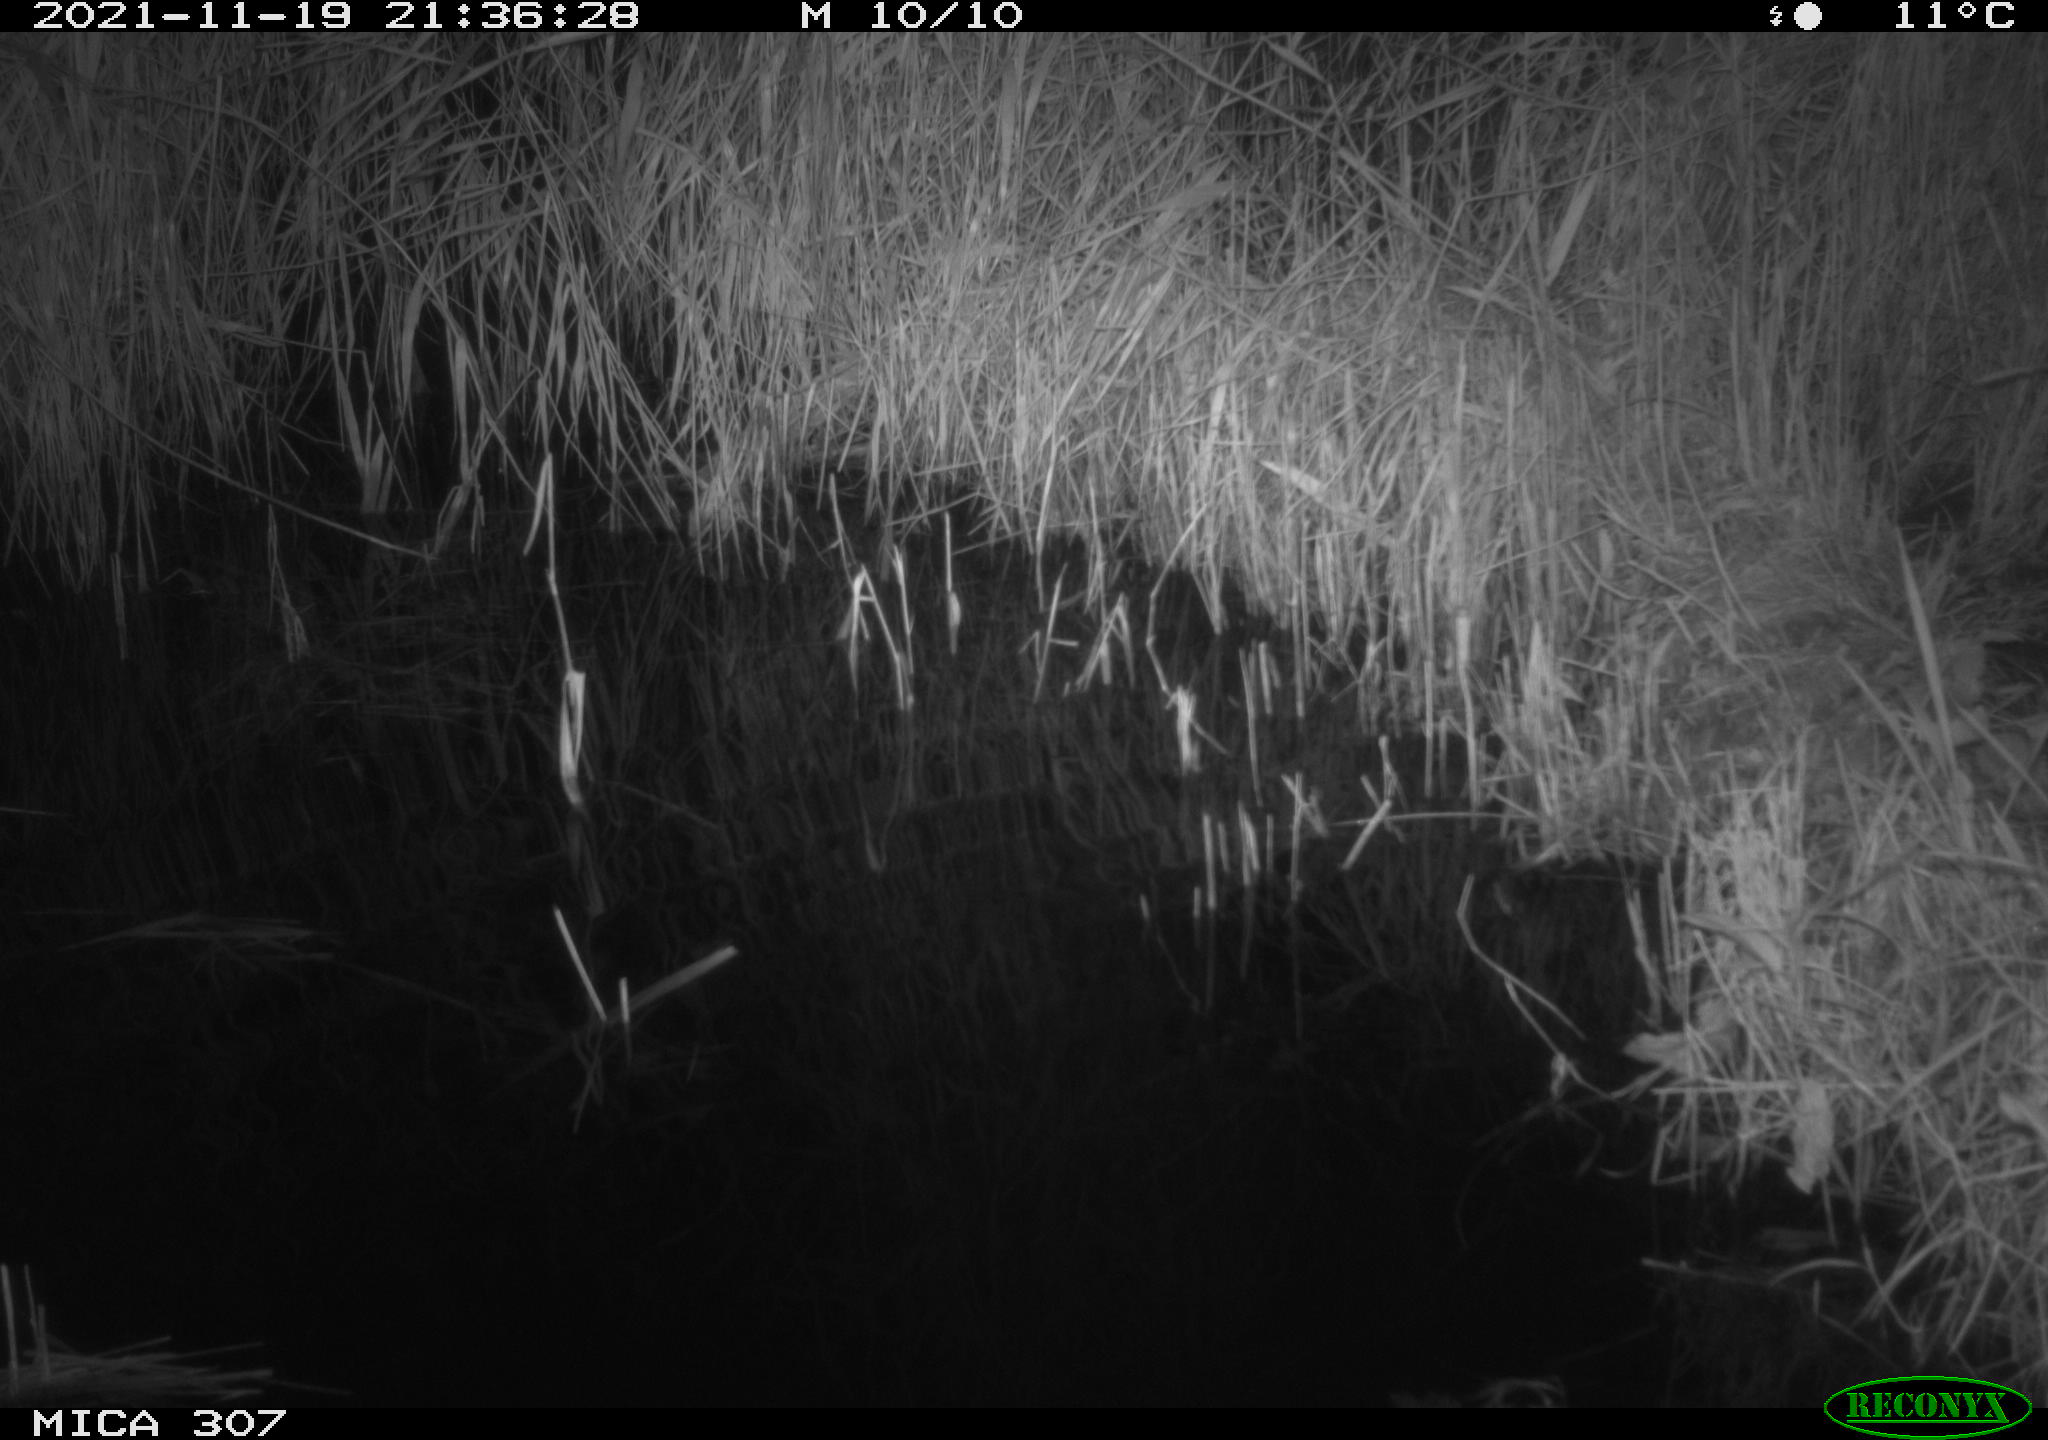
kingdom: Animalia
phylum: Chordata
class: Mammalia
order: Rodentia
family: Muridae
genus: Rattus
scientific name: Rattus norvegicus
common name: Brown rat
